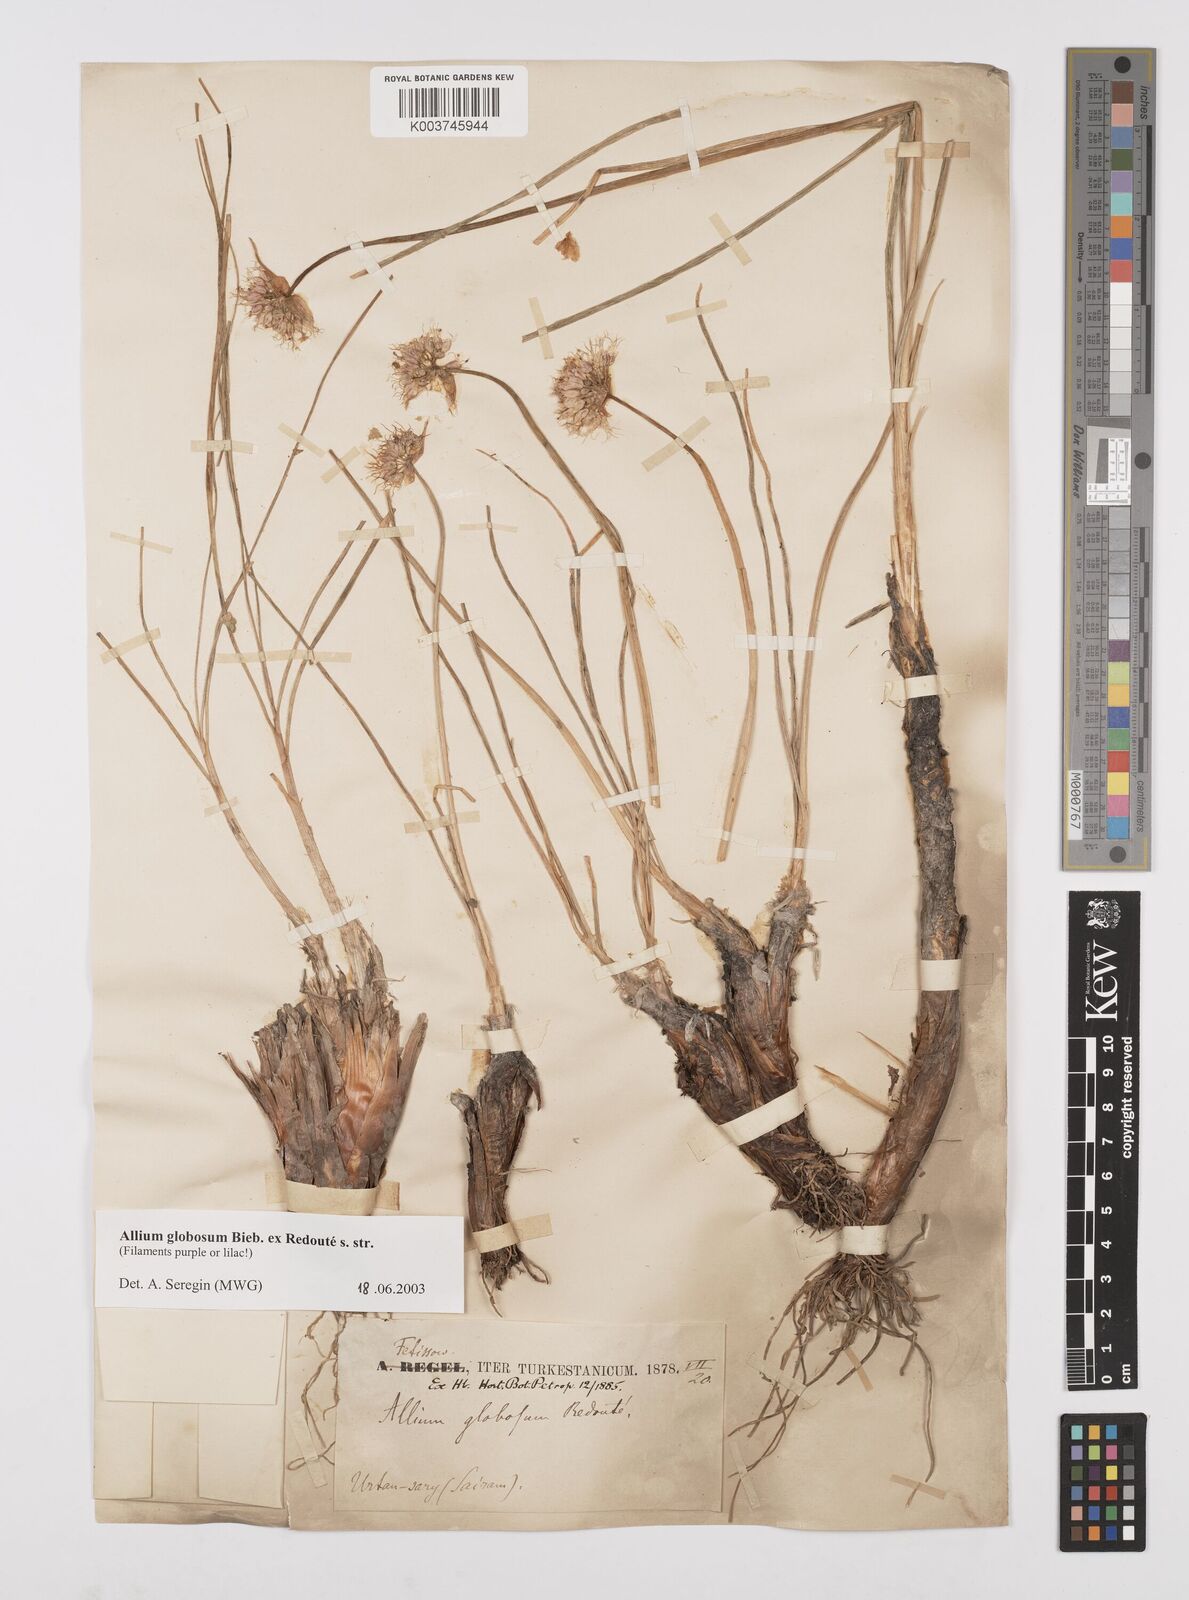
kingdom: Plantae
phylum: Tracheophyta
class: Liliopsida
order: Asparagales
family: Amaryllidaceae
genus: Allium
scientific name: Allium saxatile
